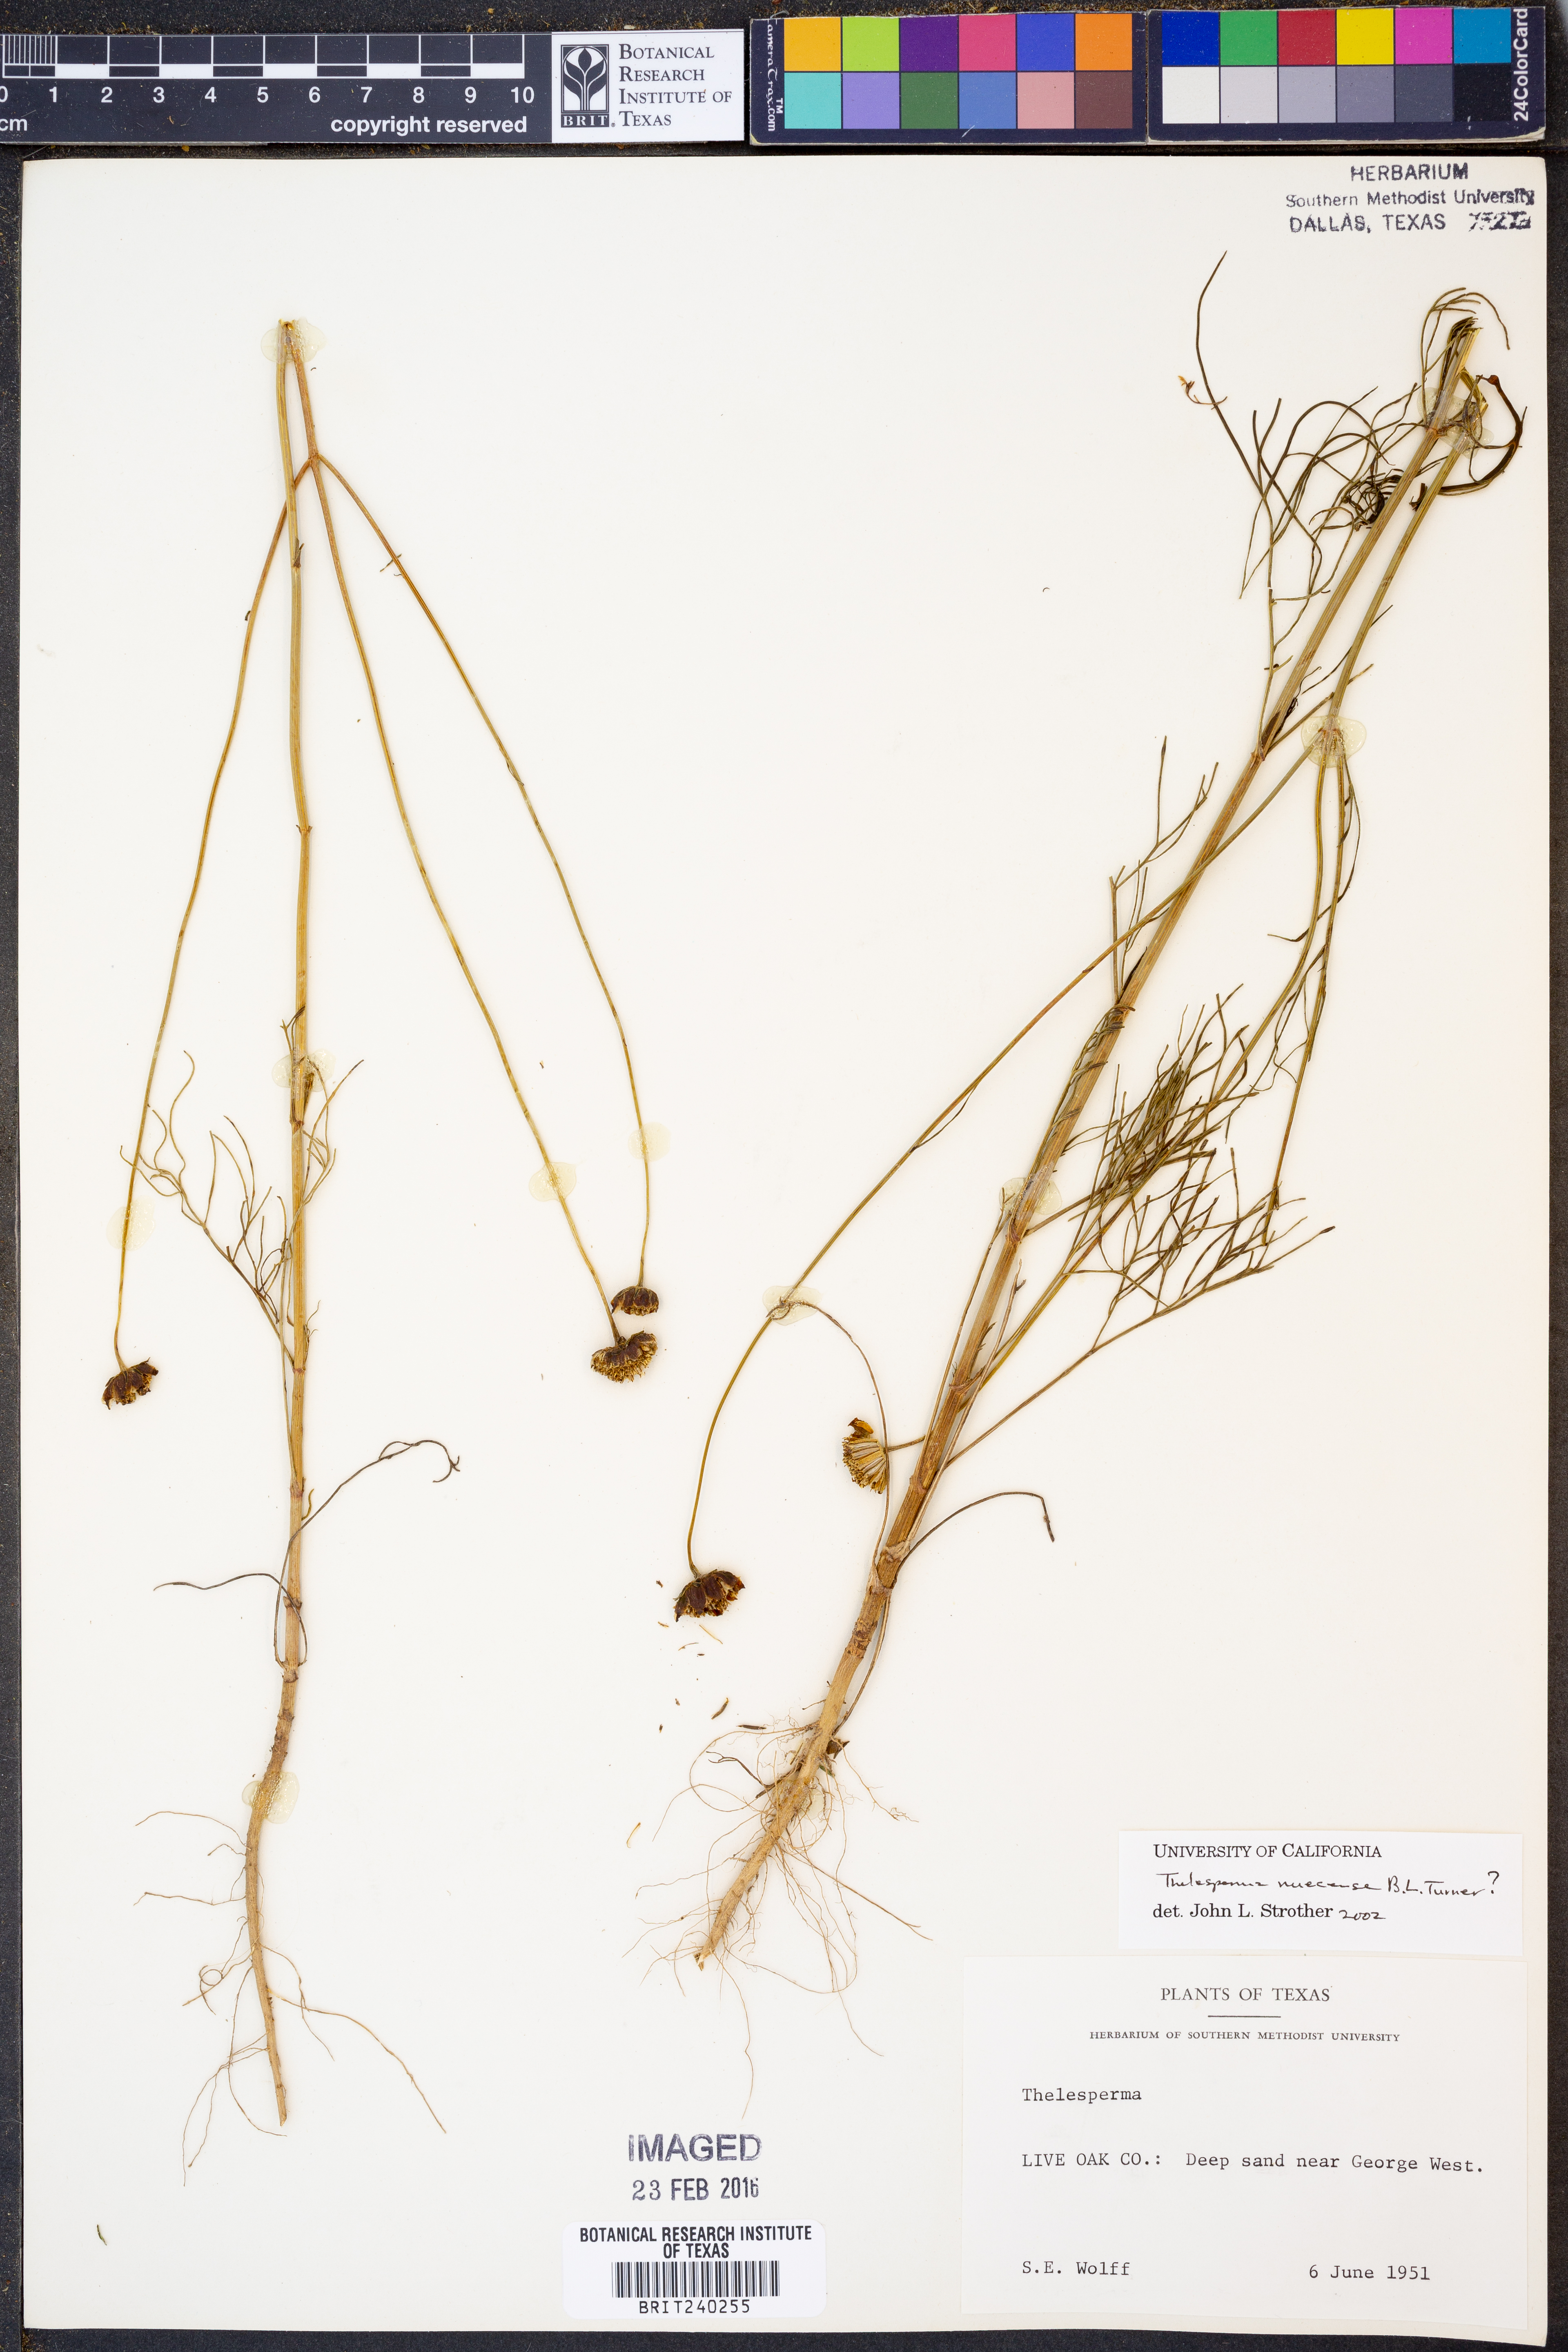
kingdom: Plantae
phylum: Tracheophyta
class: Magnoliopsida
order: Asterales
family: Asteraceae
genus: Thelesperma
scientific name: Thelesperma nuecense
